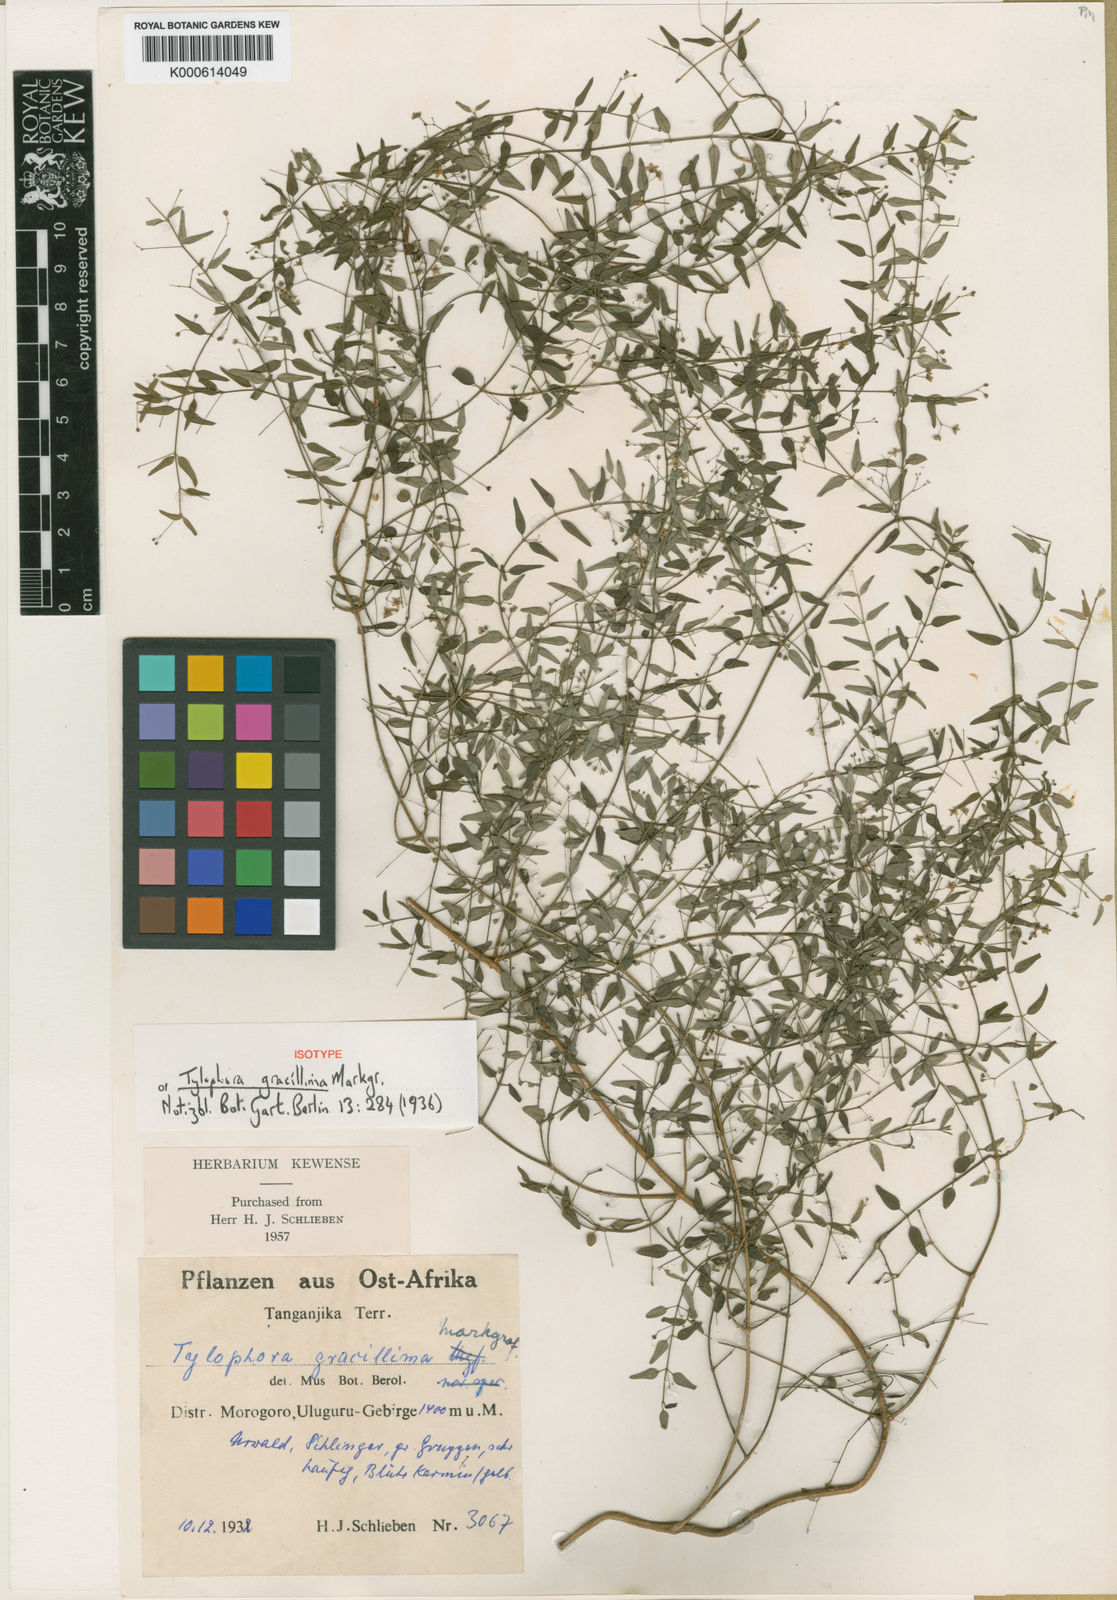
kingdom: Plantae
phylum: Tracheophyta
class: Magnoliopsida
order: Gentianales
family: Apocynaceae
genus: Vincetoxicum
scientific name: Vincetoxicum gracillimum
